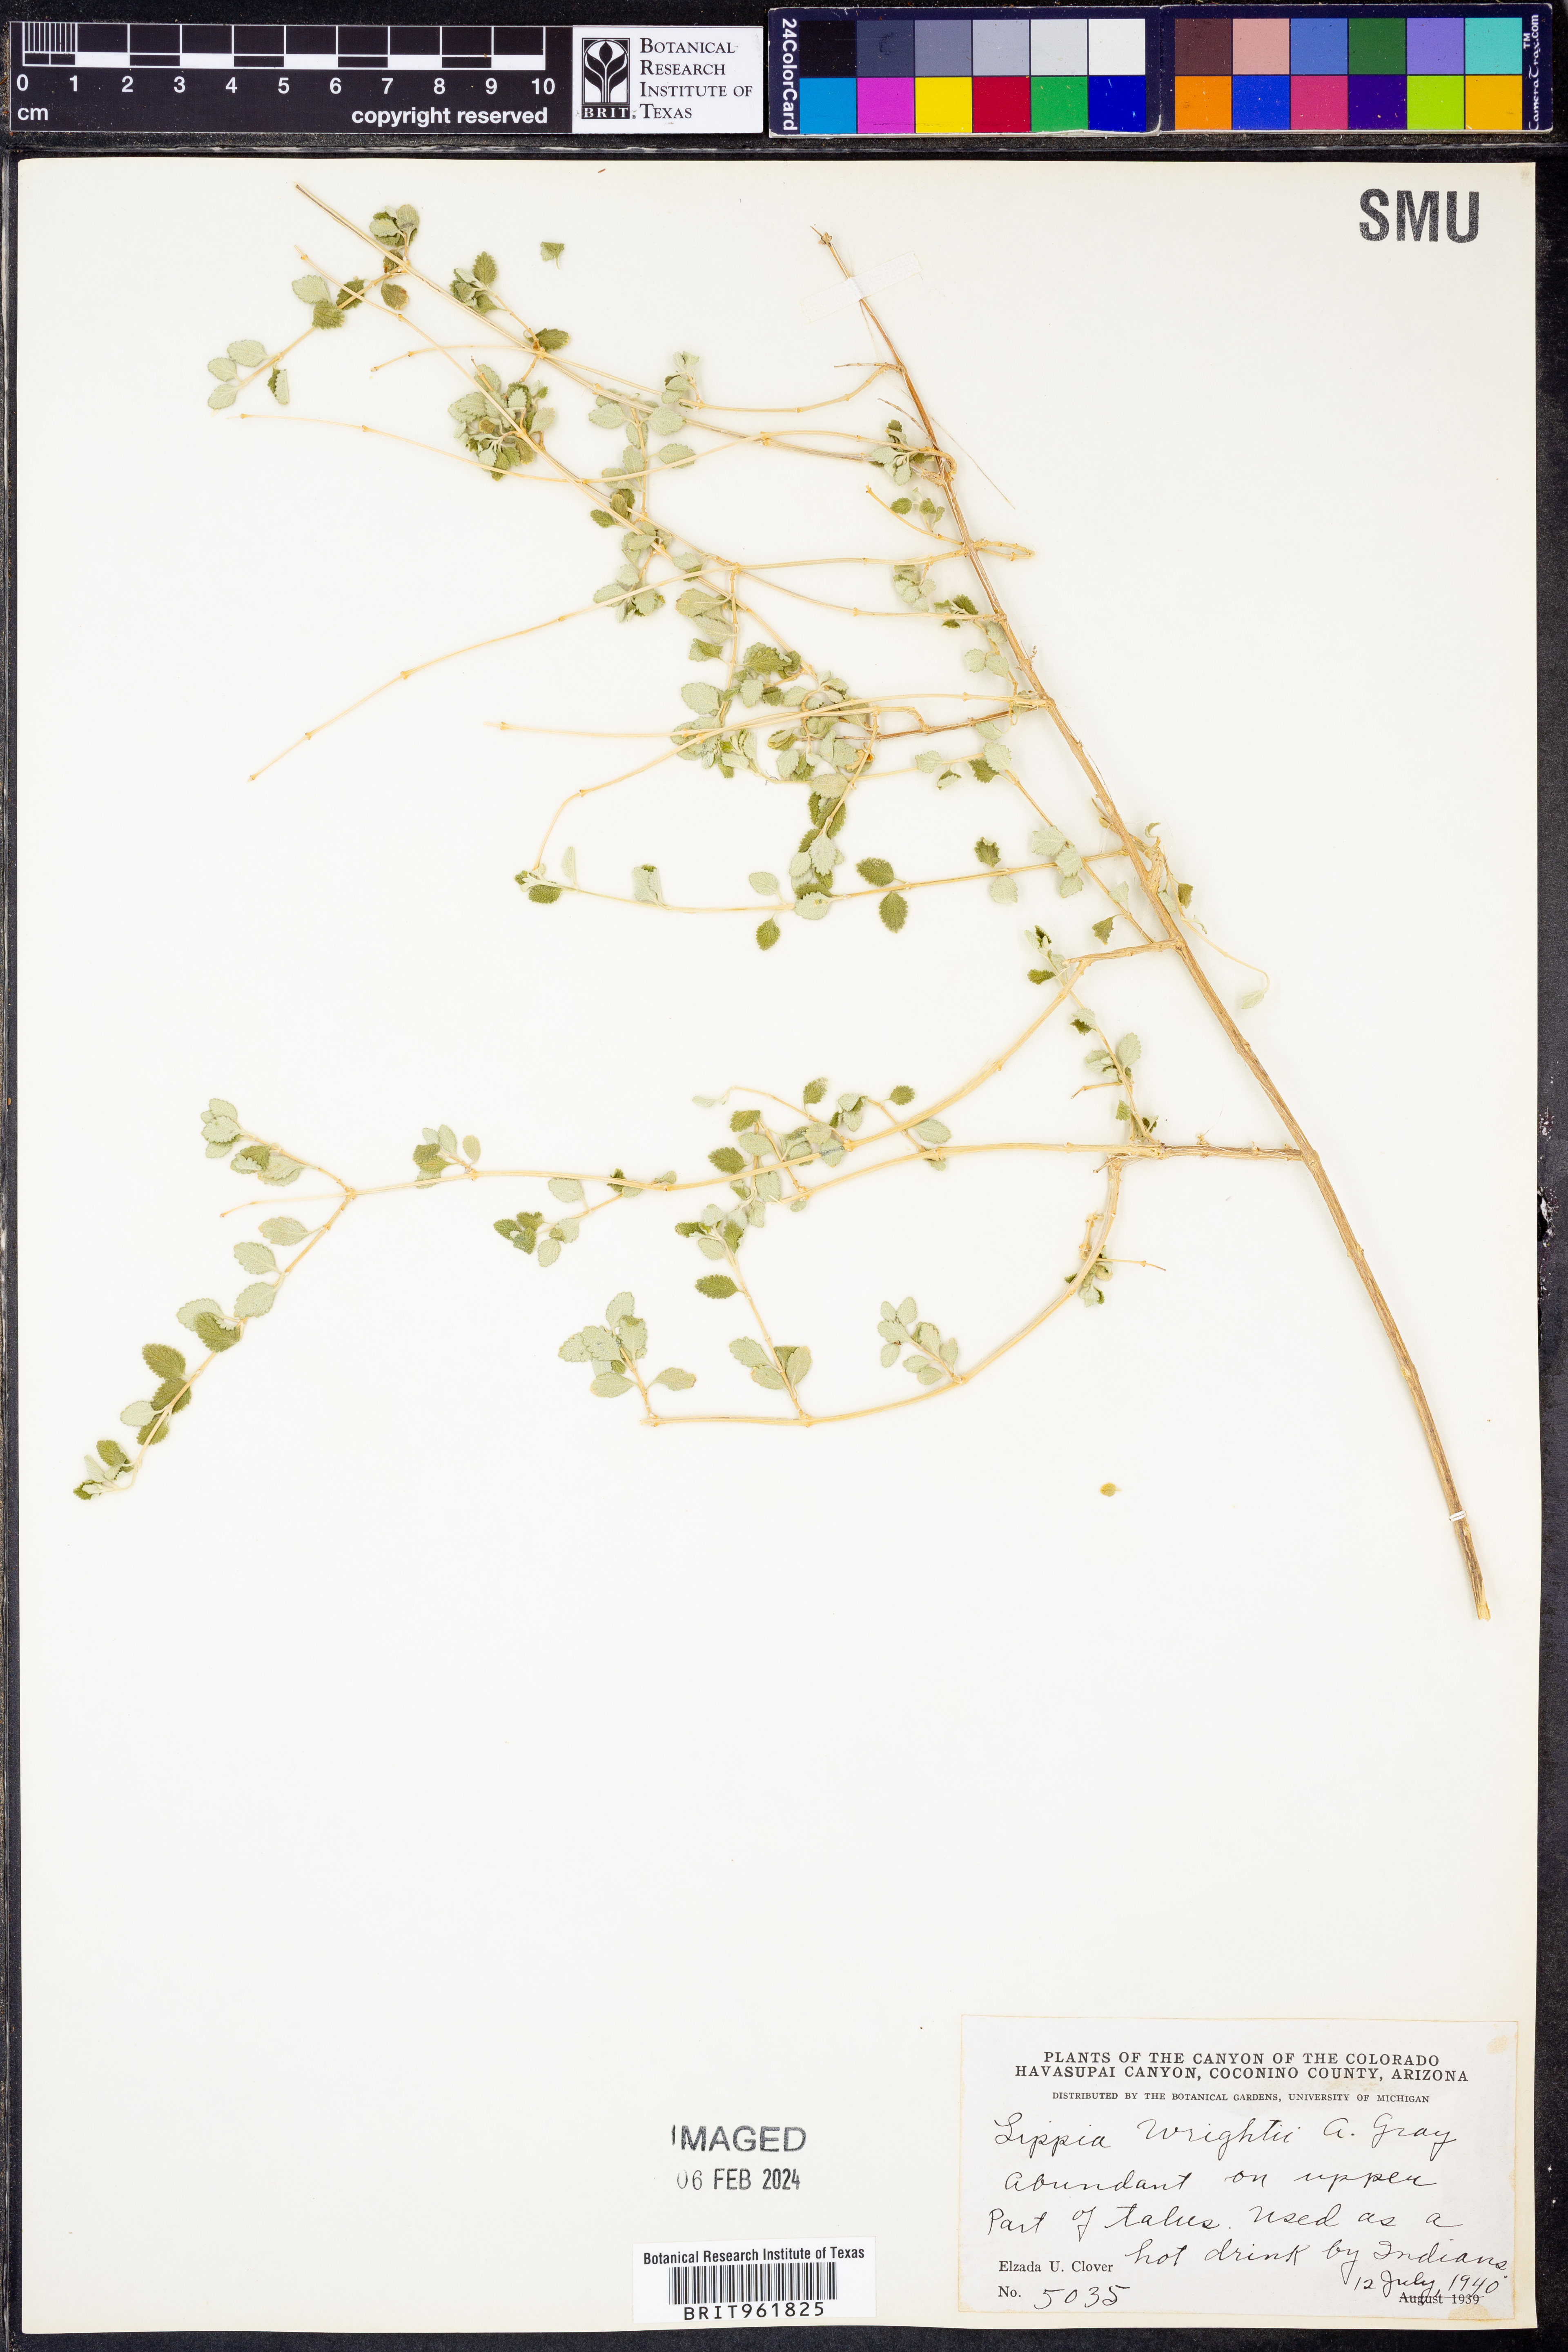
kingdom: Plantae
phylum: Tracheophyta
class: Magnoliopsida
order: Lamiales
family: Verbenaceae
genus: Aloysia
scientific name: Aloysia wrightii
